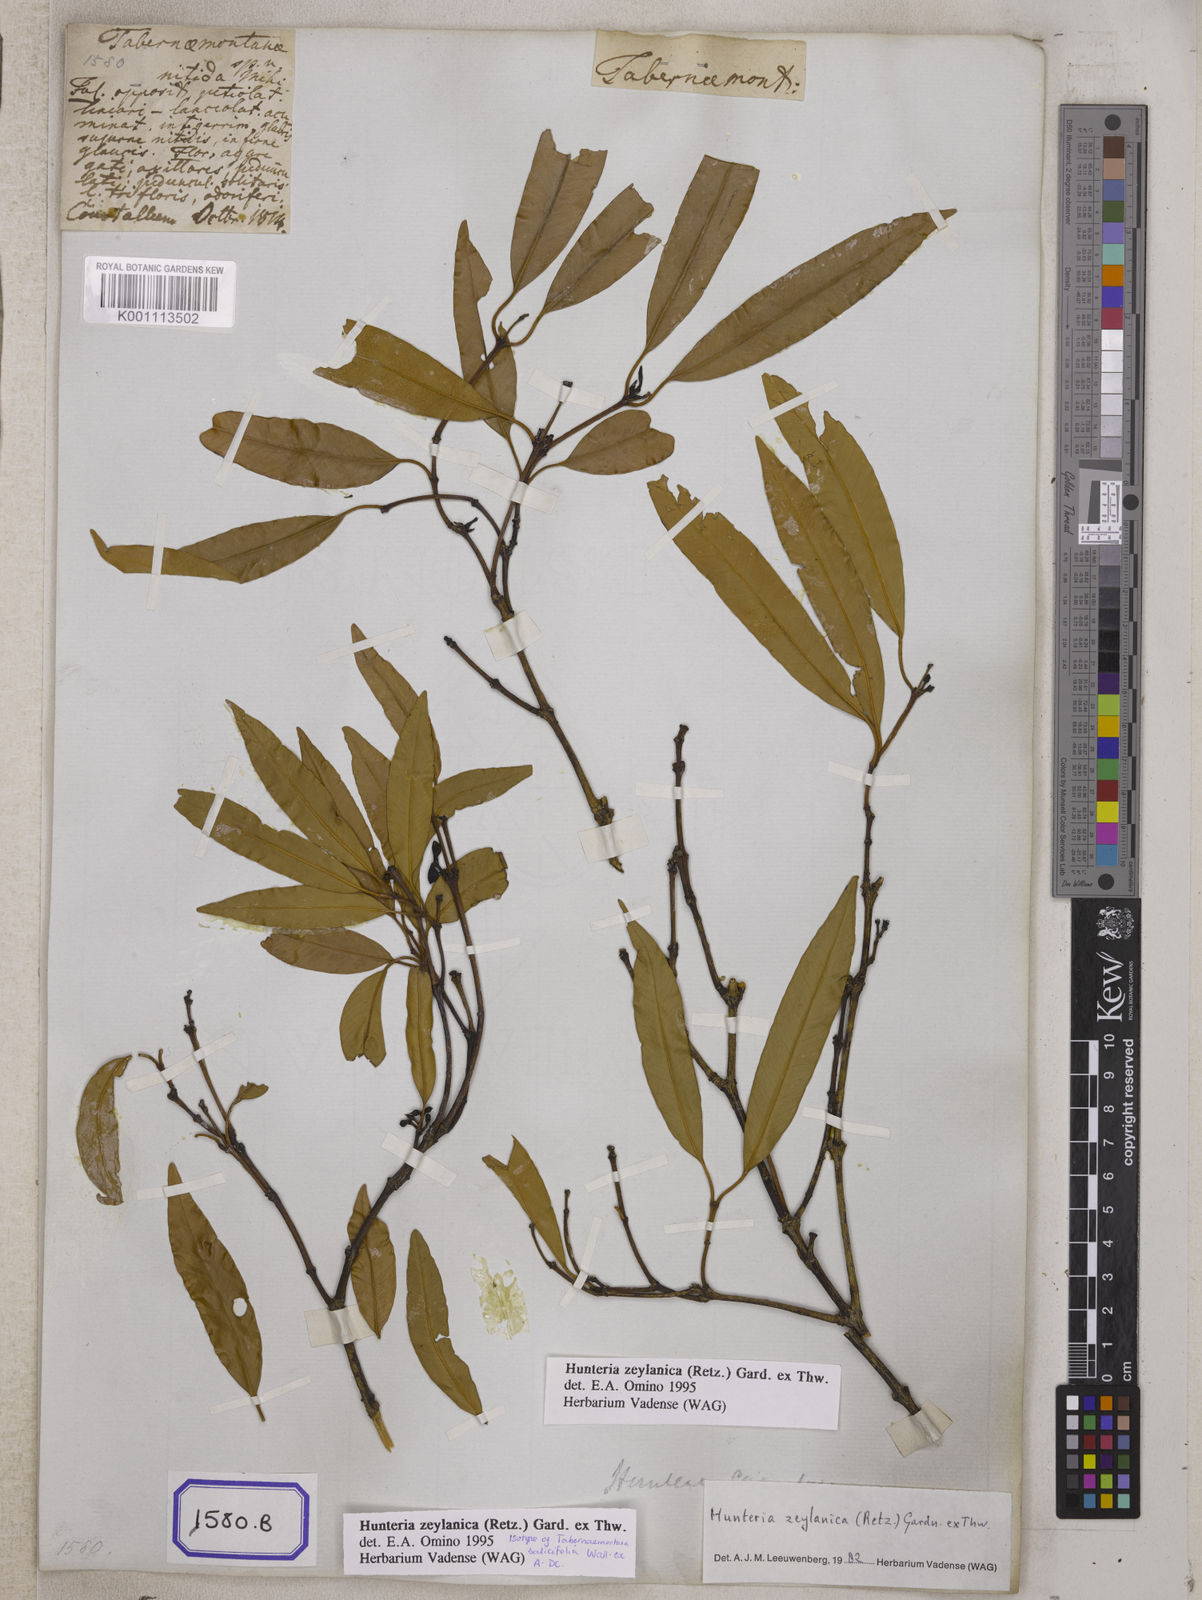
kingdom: Plantae
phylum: Tracheophyta
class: Magnoliopsida
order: Gentianales
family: Apocynaceae
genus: Tabernaemontana
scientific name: Tabernaemontana
